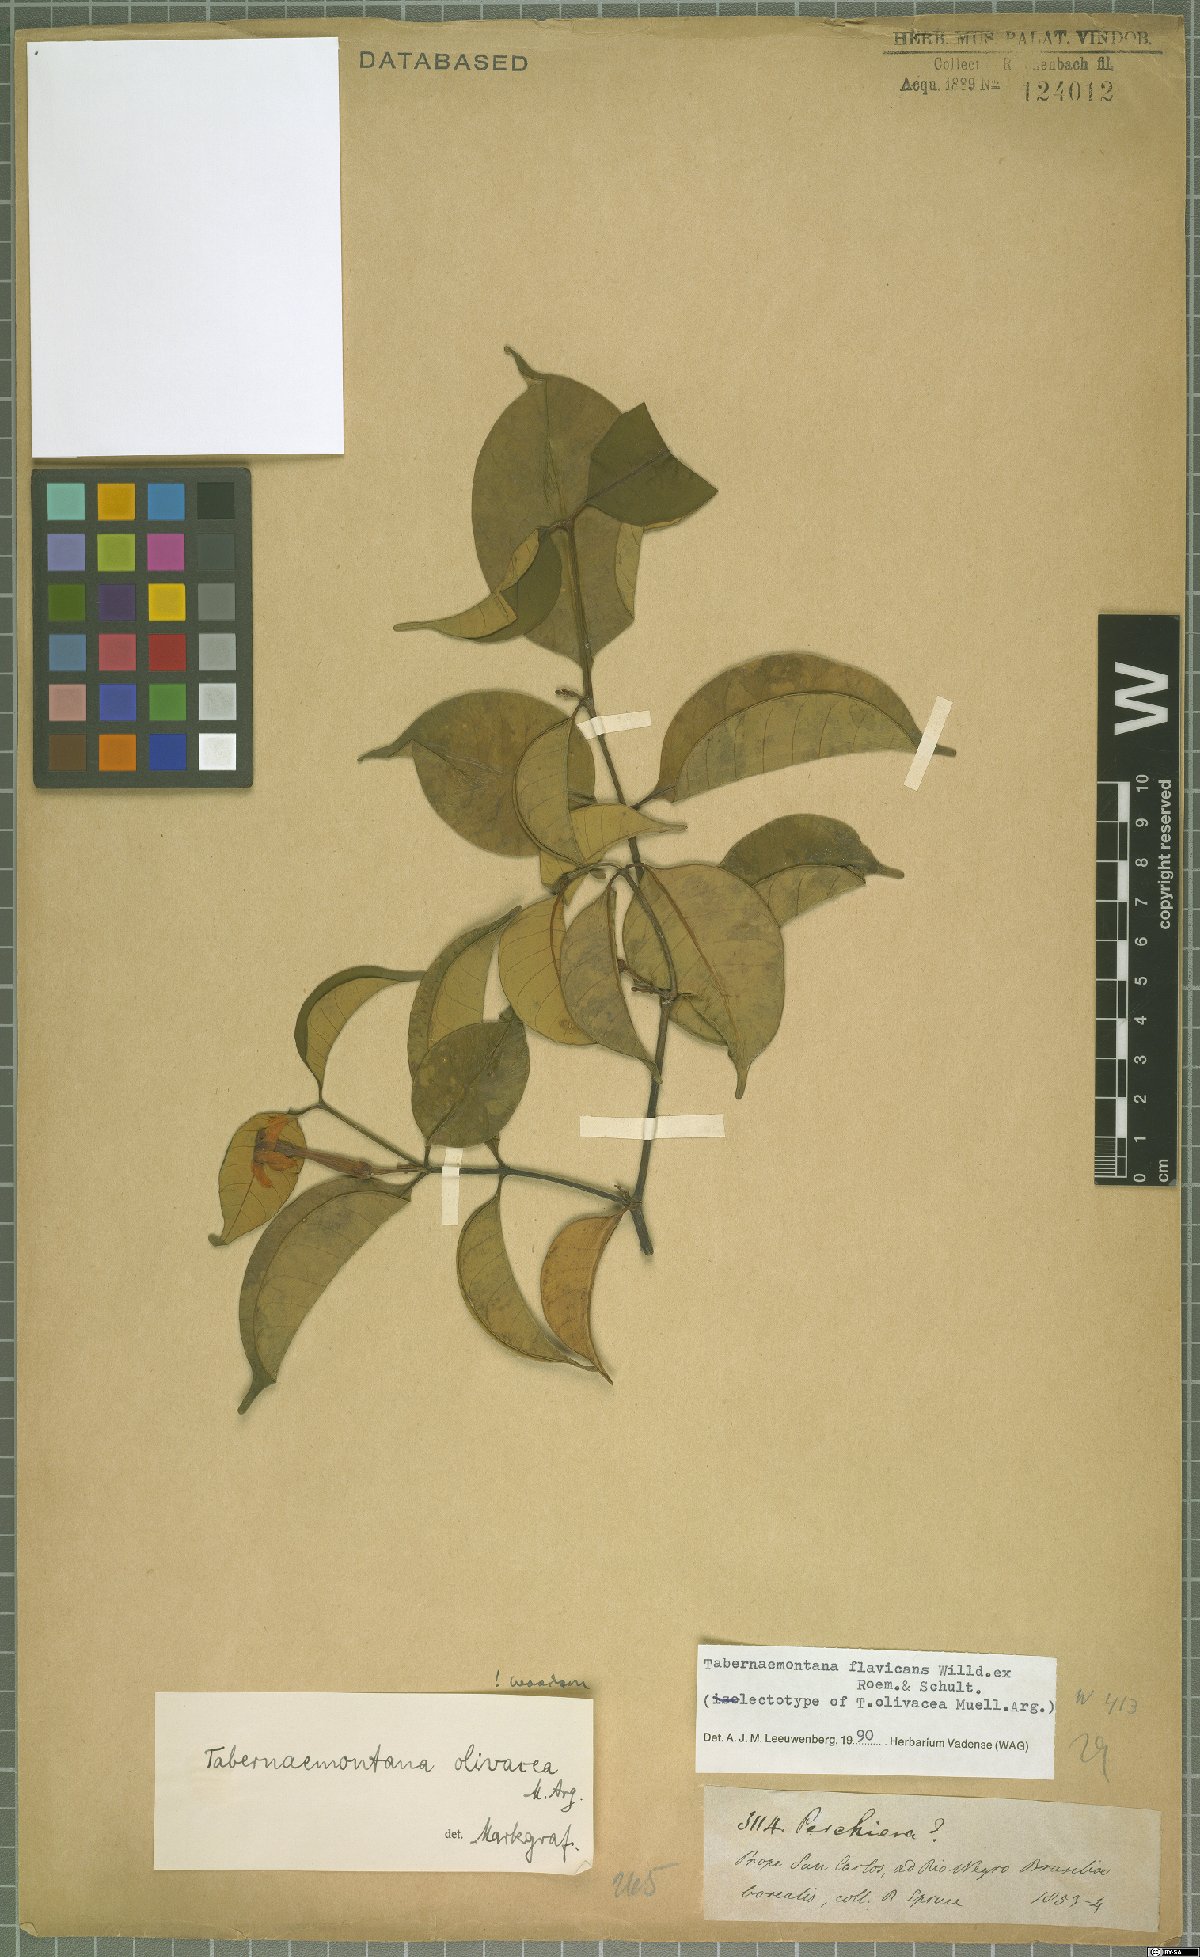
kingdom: Plantae
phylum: Tracheophyta
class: Magnoliopsida
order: Gentianales
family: Apocynaceae
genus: Tabernaemontana
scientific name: Tabernaemontana flavicans
